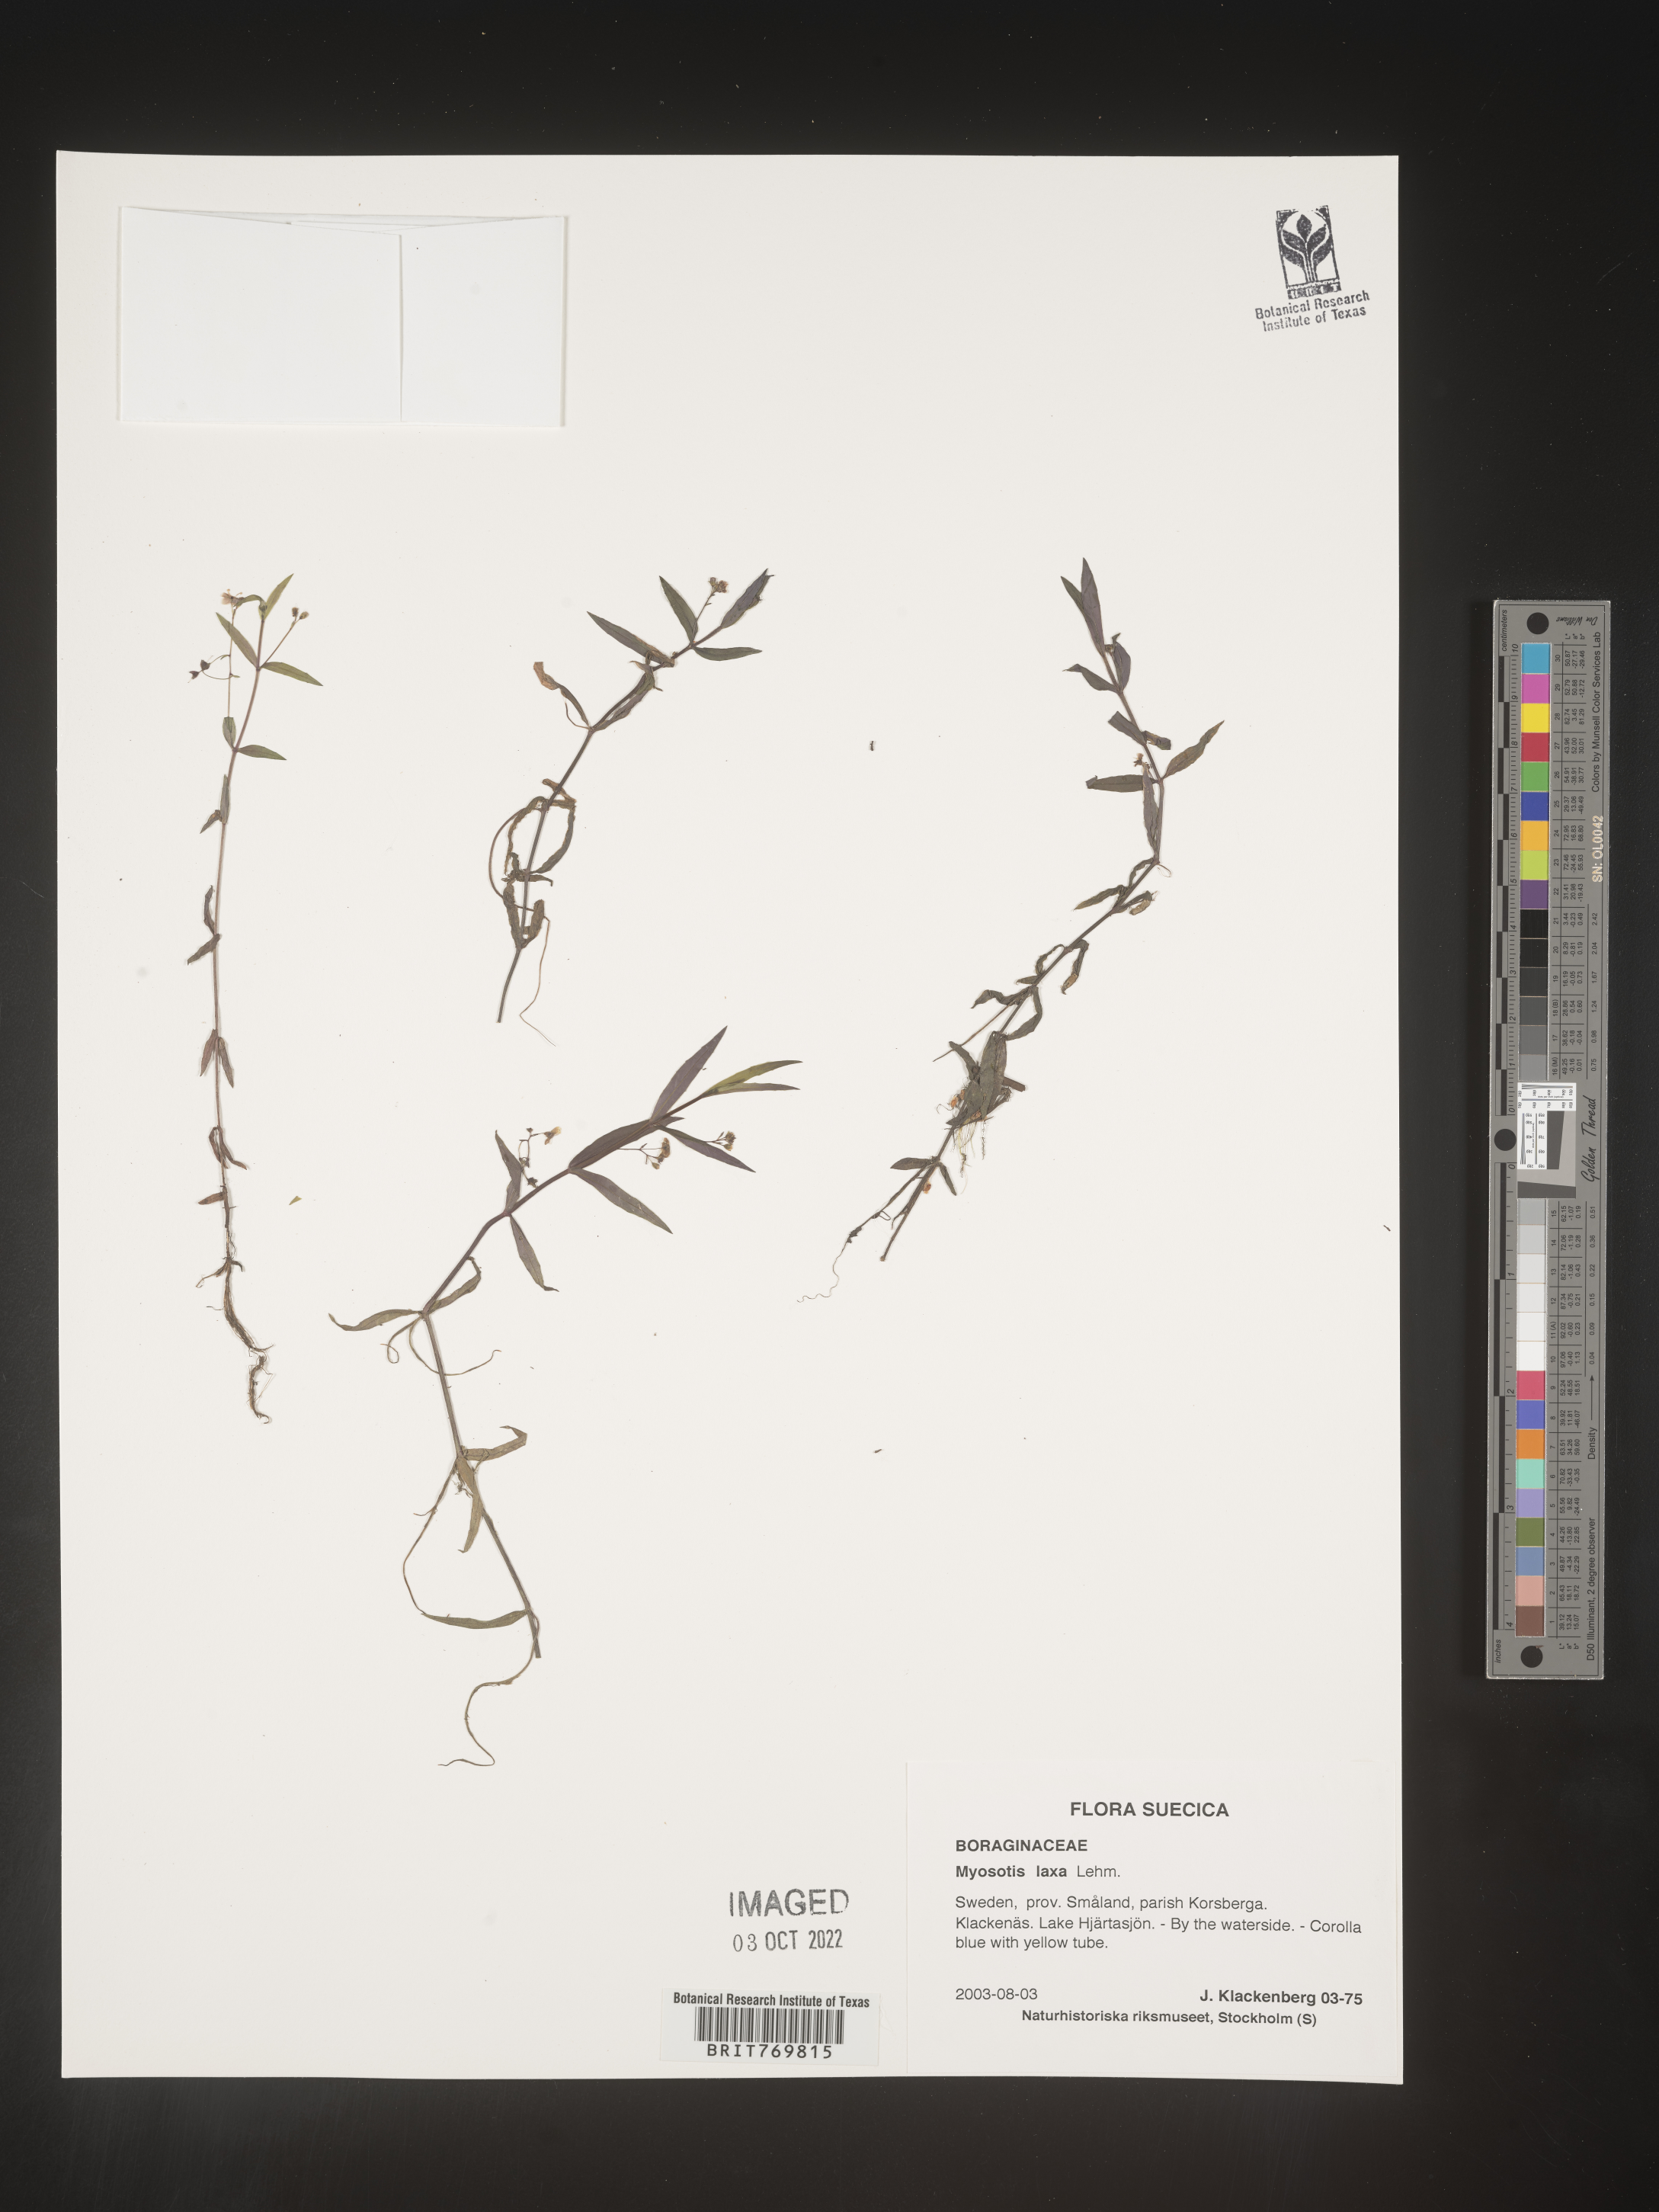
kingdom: Plantae
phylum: Tracheophyta
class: Magnoliopsida
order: Boraginales
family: Boraginaceae
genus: Myosotis
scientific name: Myosotis
